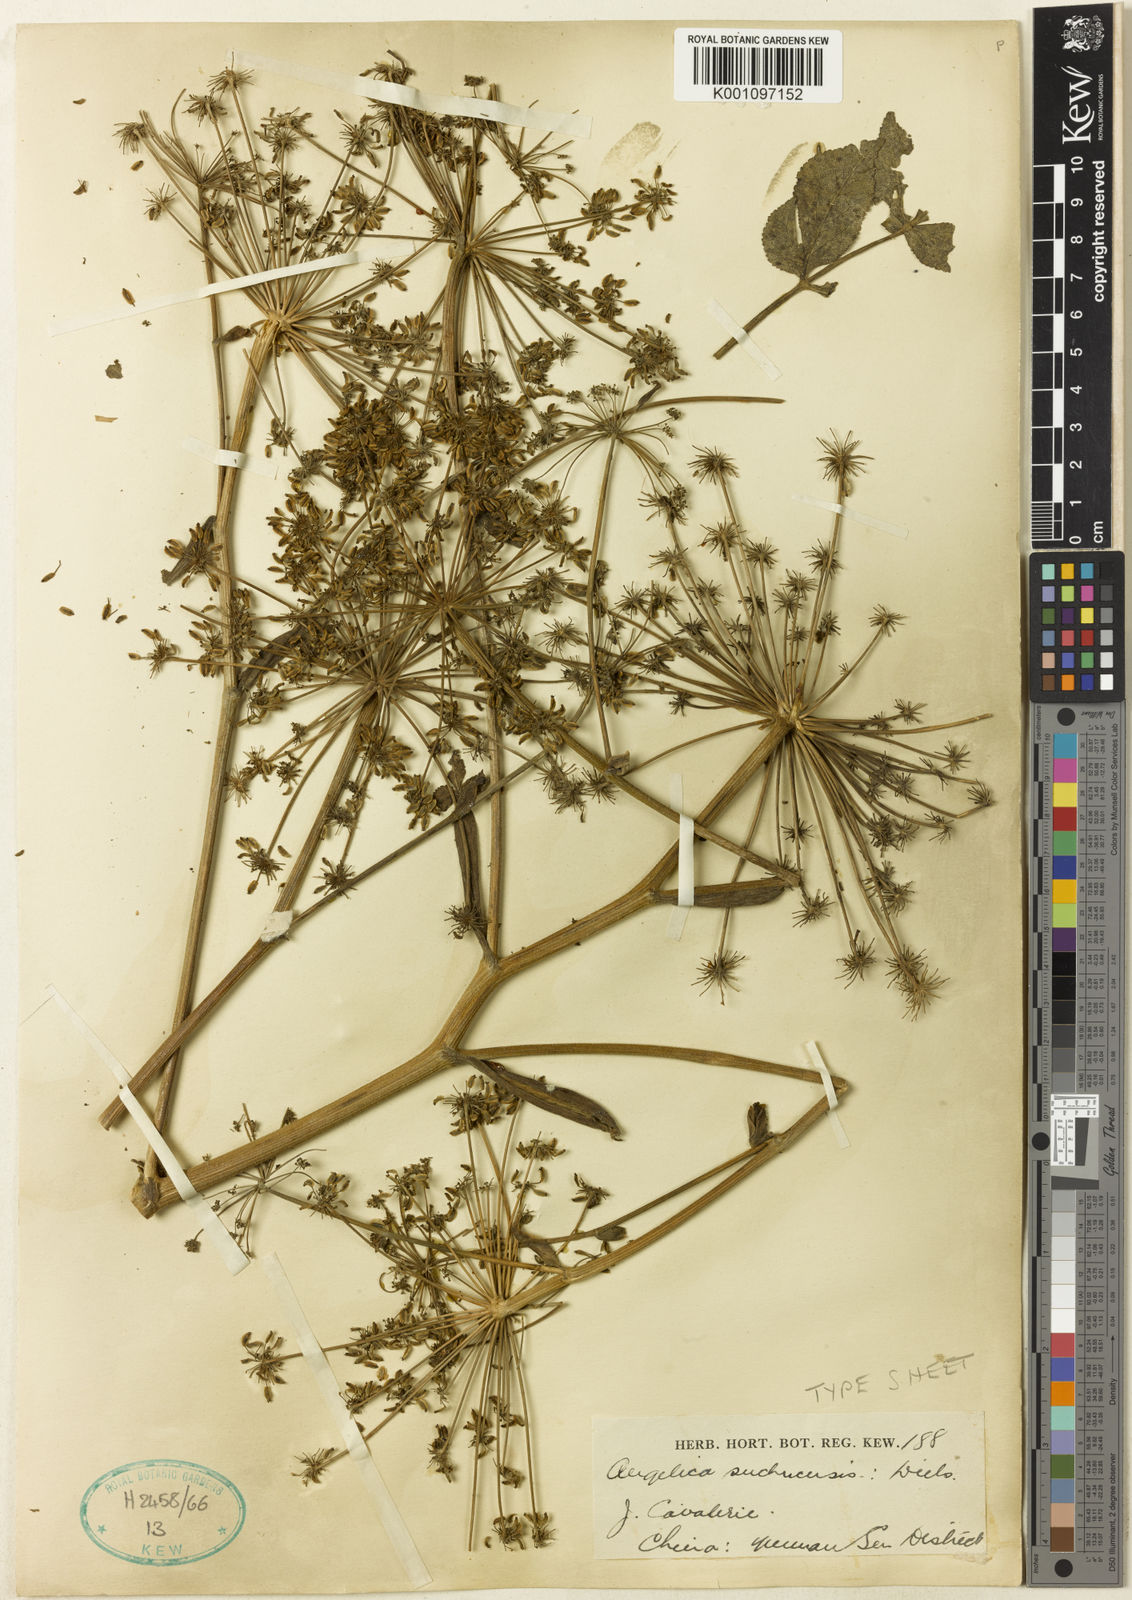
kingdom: Plantae
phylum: Tracheophyta
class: Magnoliopsida
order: Apiales
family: Apiaceae
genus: Angelica
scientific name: Angelica setchuenensis
